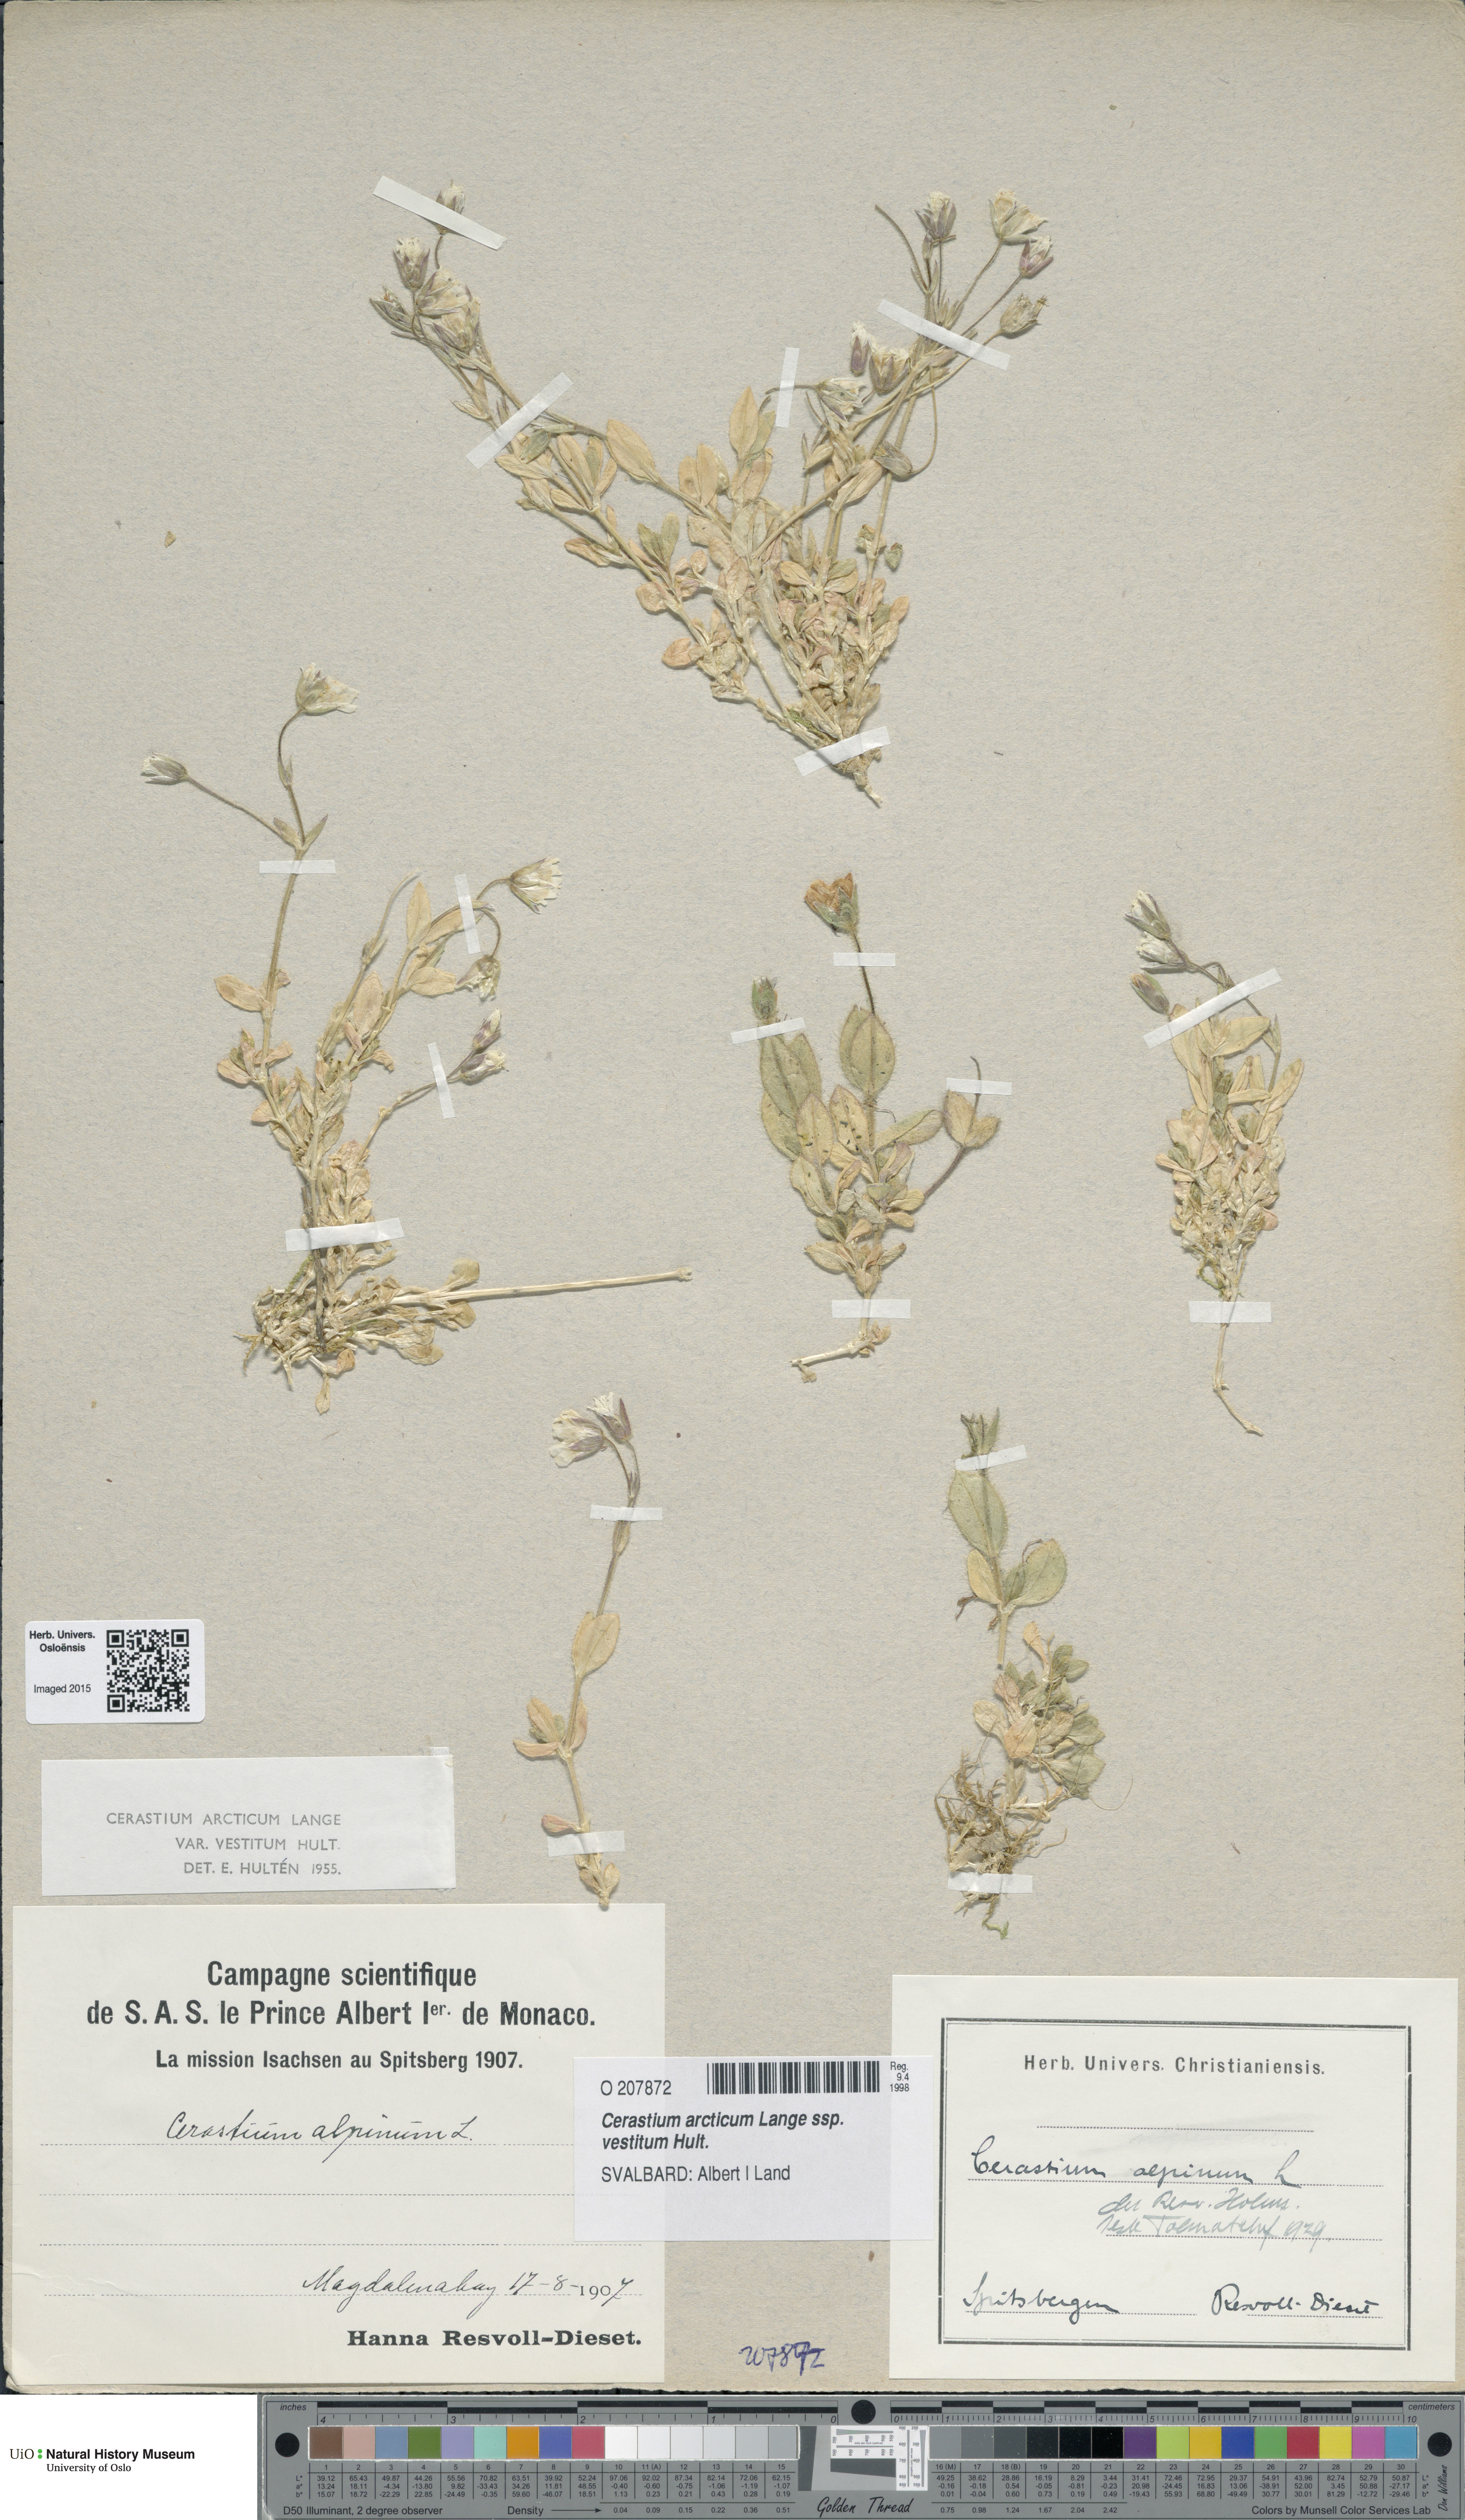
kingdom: Plantae
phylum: Tracheophyta
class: Magnoliopsida
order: Caryophyllales
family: Caryophyllaceae
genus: Cerastium
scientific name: Cerastium arcticum
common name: Arctic mouse-ear
